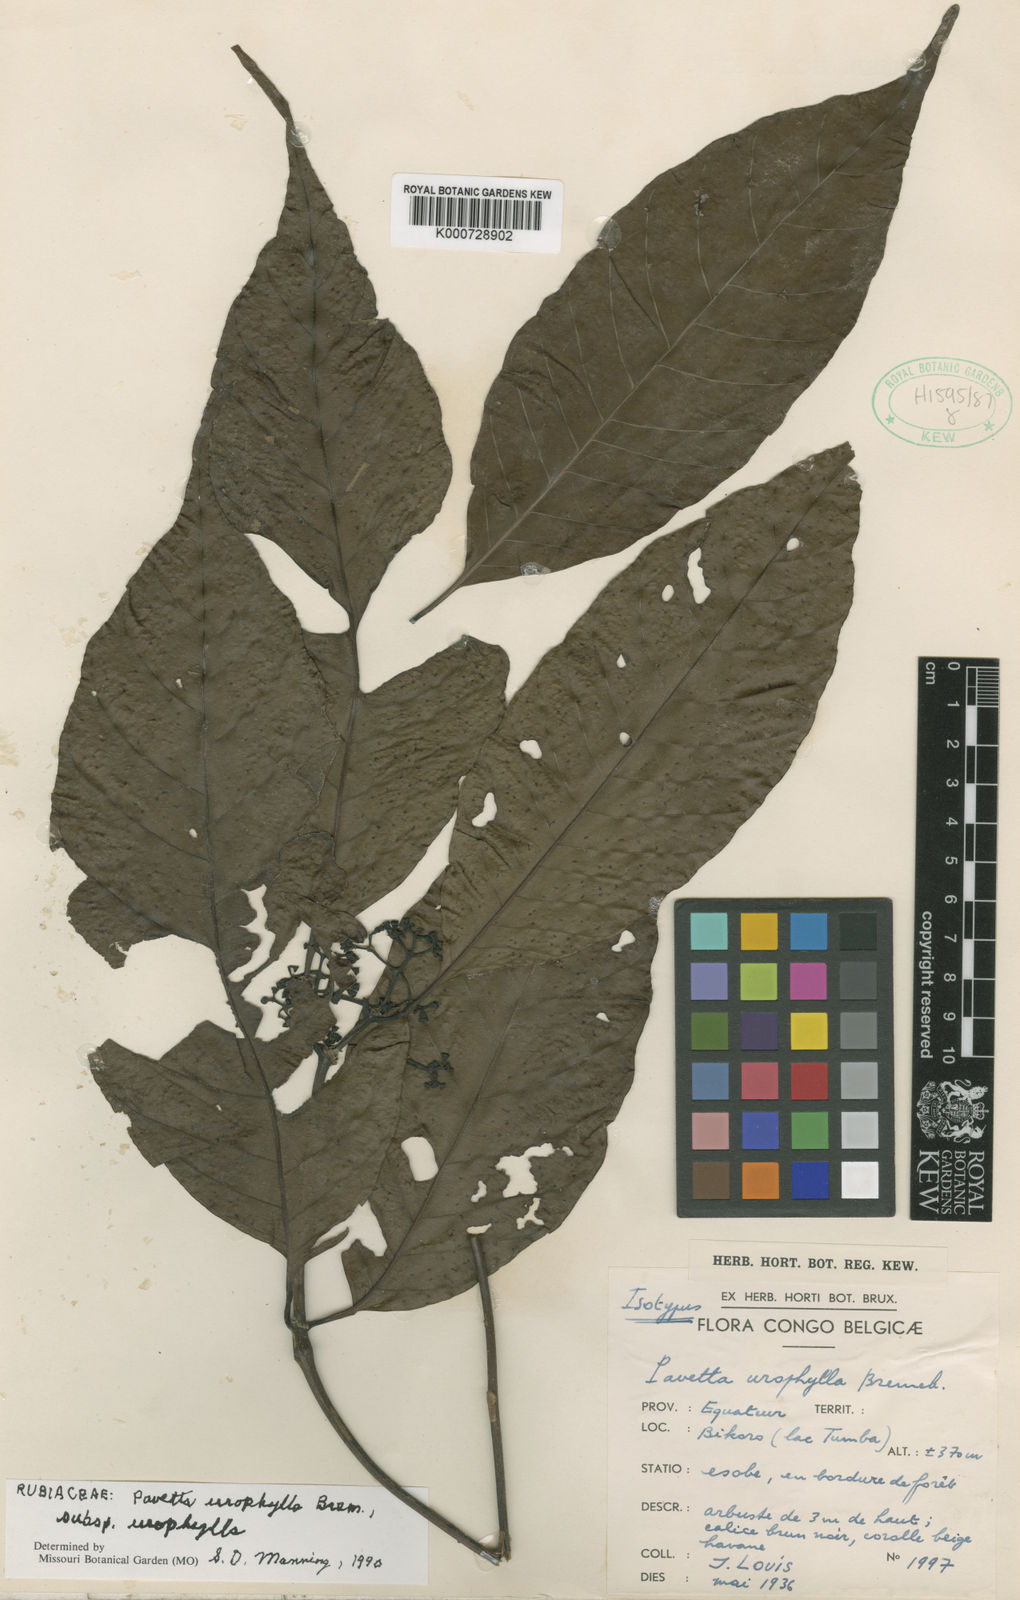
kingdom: Plantae
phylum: Tracheophyta
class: Magnoliopsida
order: Gentianales
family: Rubiaceae
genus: Pavetta
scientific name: Pavetta urophylla
